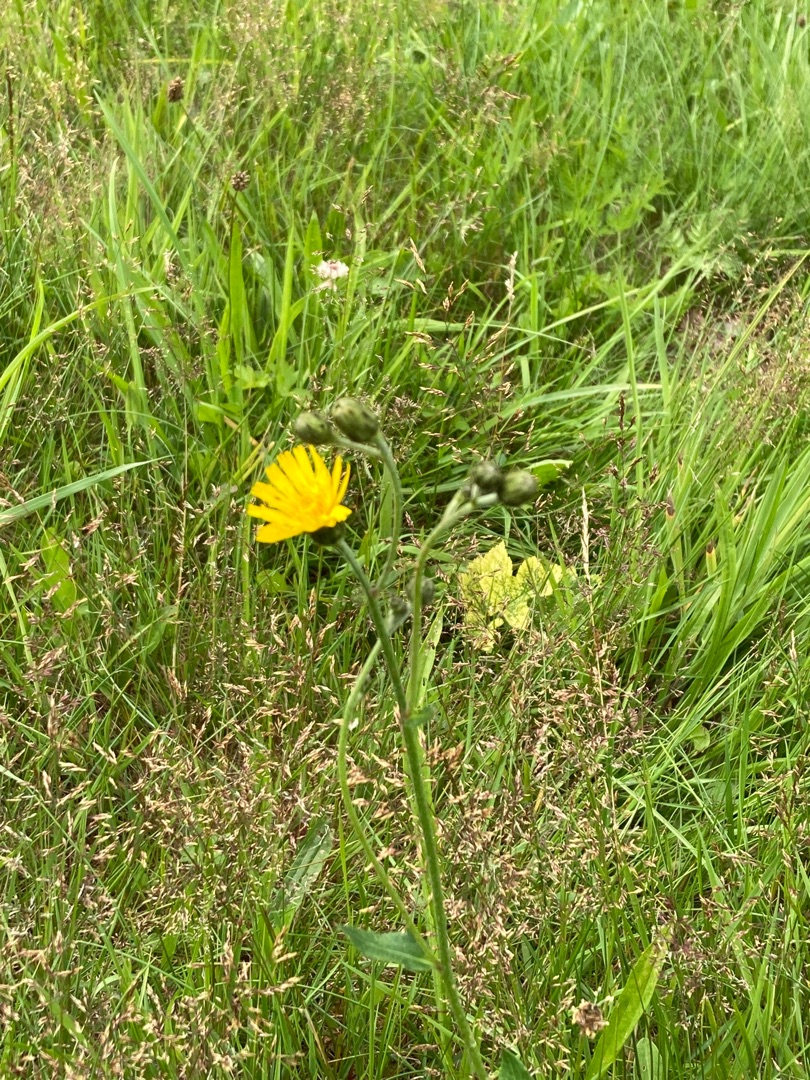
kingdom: Plantae
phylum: Tracheophyta
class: Magnoliopsida
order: Asterales
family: Asteraceae
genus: Hieracium
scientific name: Hieracium
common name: Høgeurt (Hieracium-slægten)
